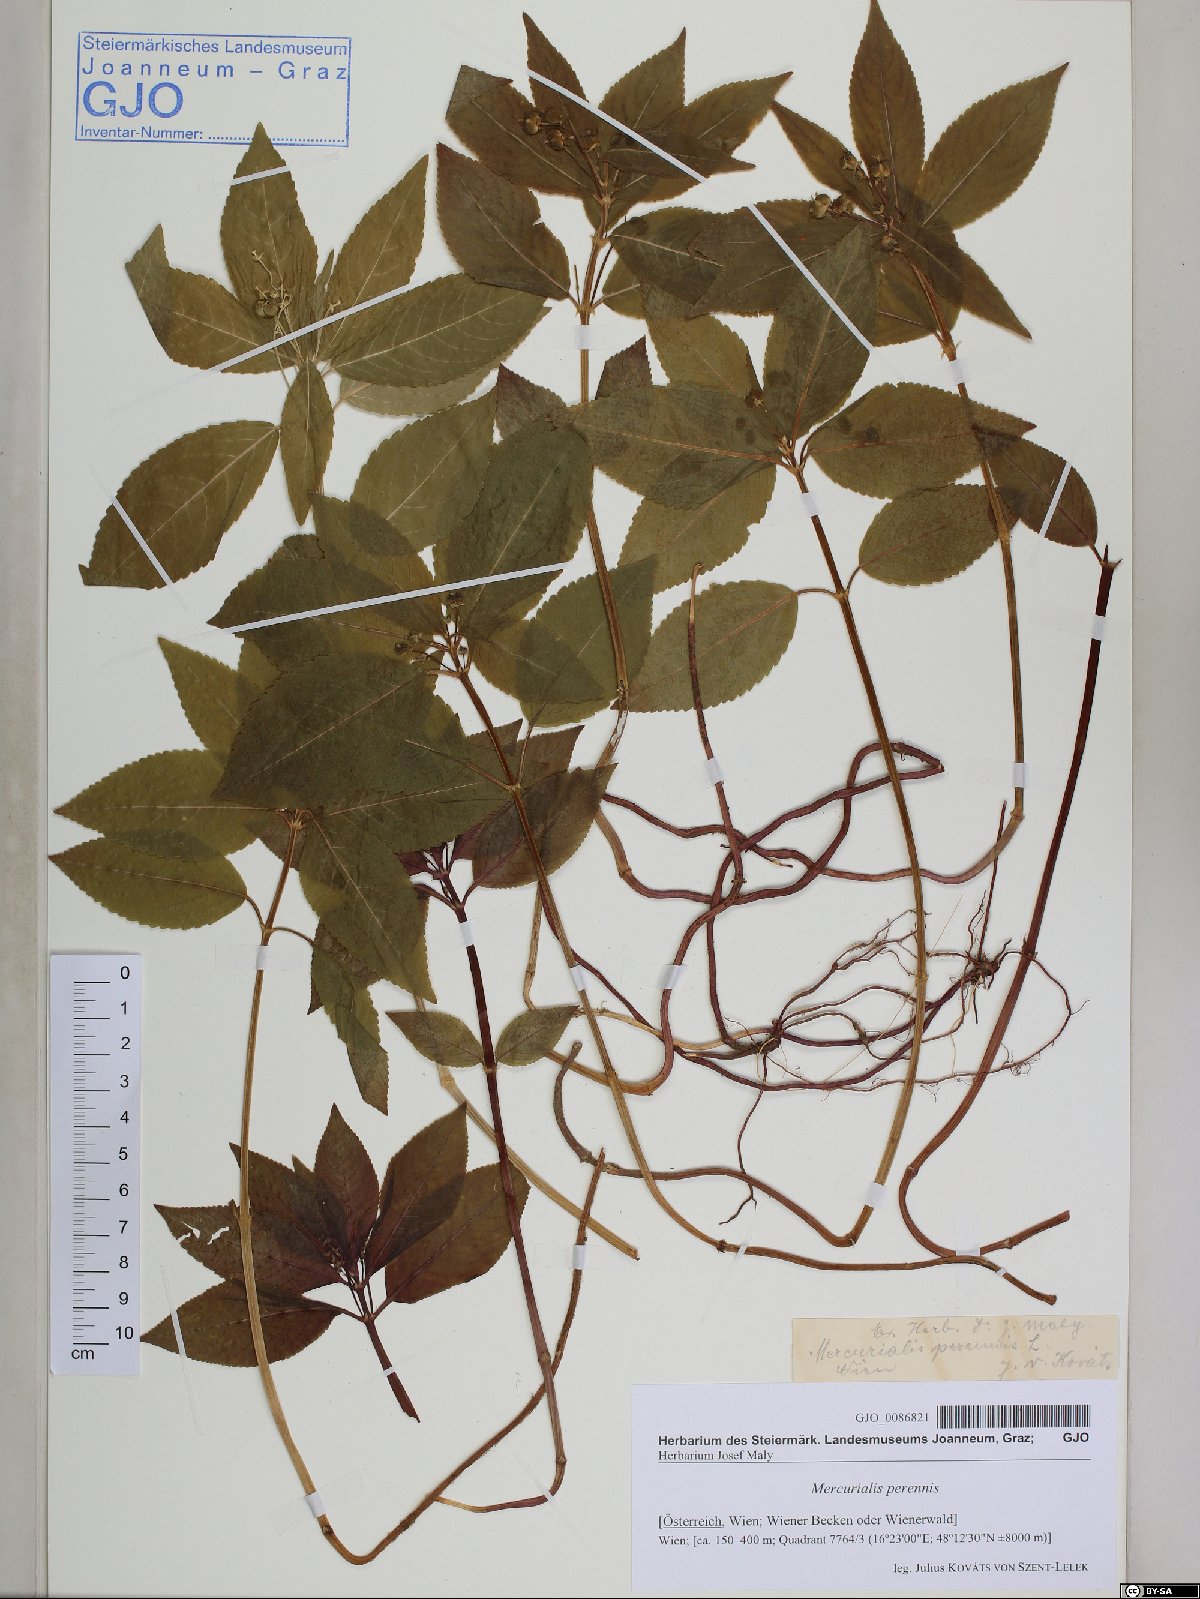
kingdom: Plantae
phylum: Tracheophyta
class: Magnoliopsida
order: Malpighiales
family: Euphorbiaceae
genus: Mercurialis
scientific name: Mercurialis perennis
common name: Dog mercury
